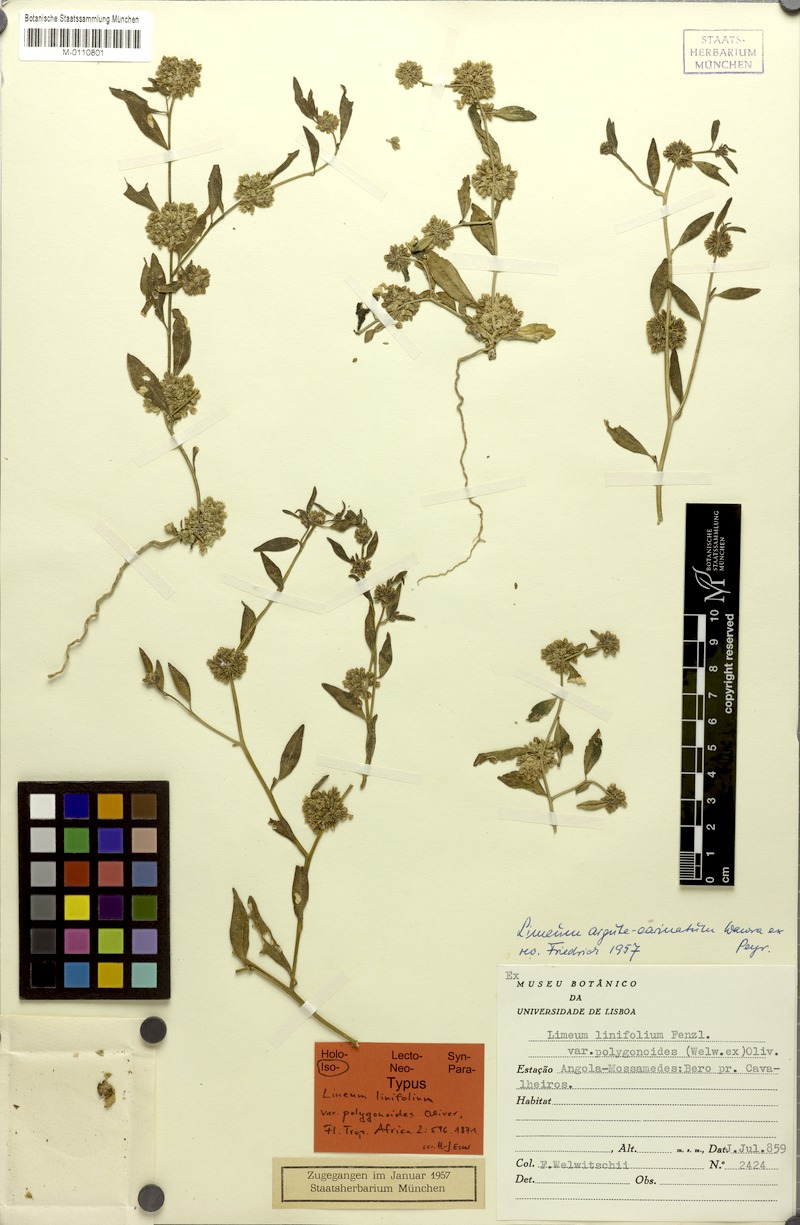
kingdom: Plantae
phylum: Tracheophyta
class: Magnoliopsida
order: Caryophyllales
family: Limeaceae
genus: Limeum
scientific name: Limeum argute-carinatum
